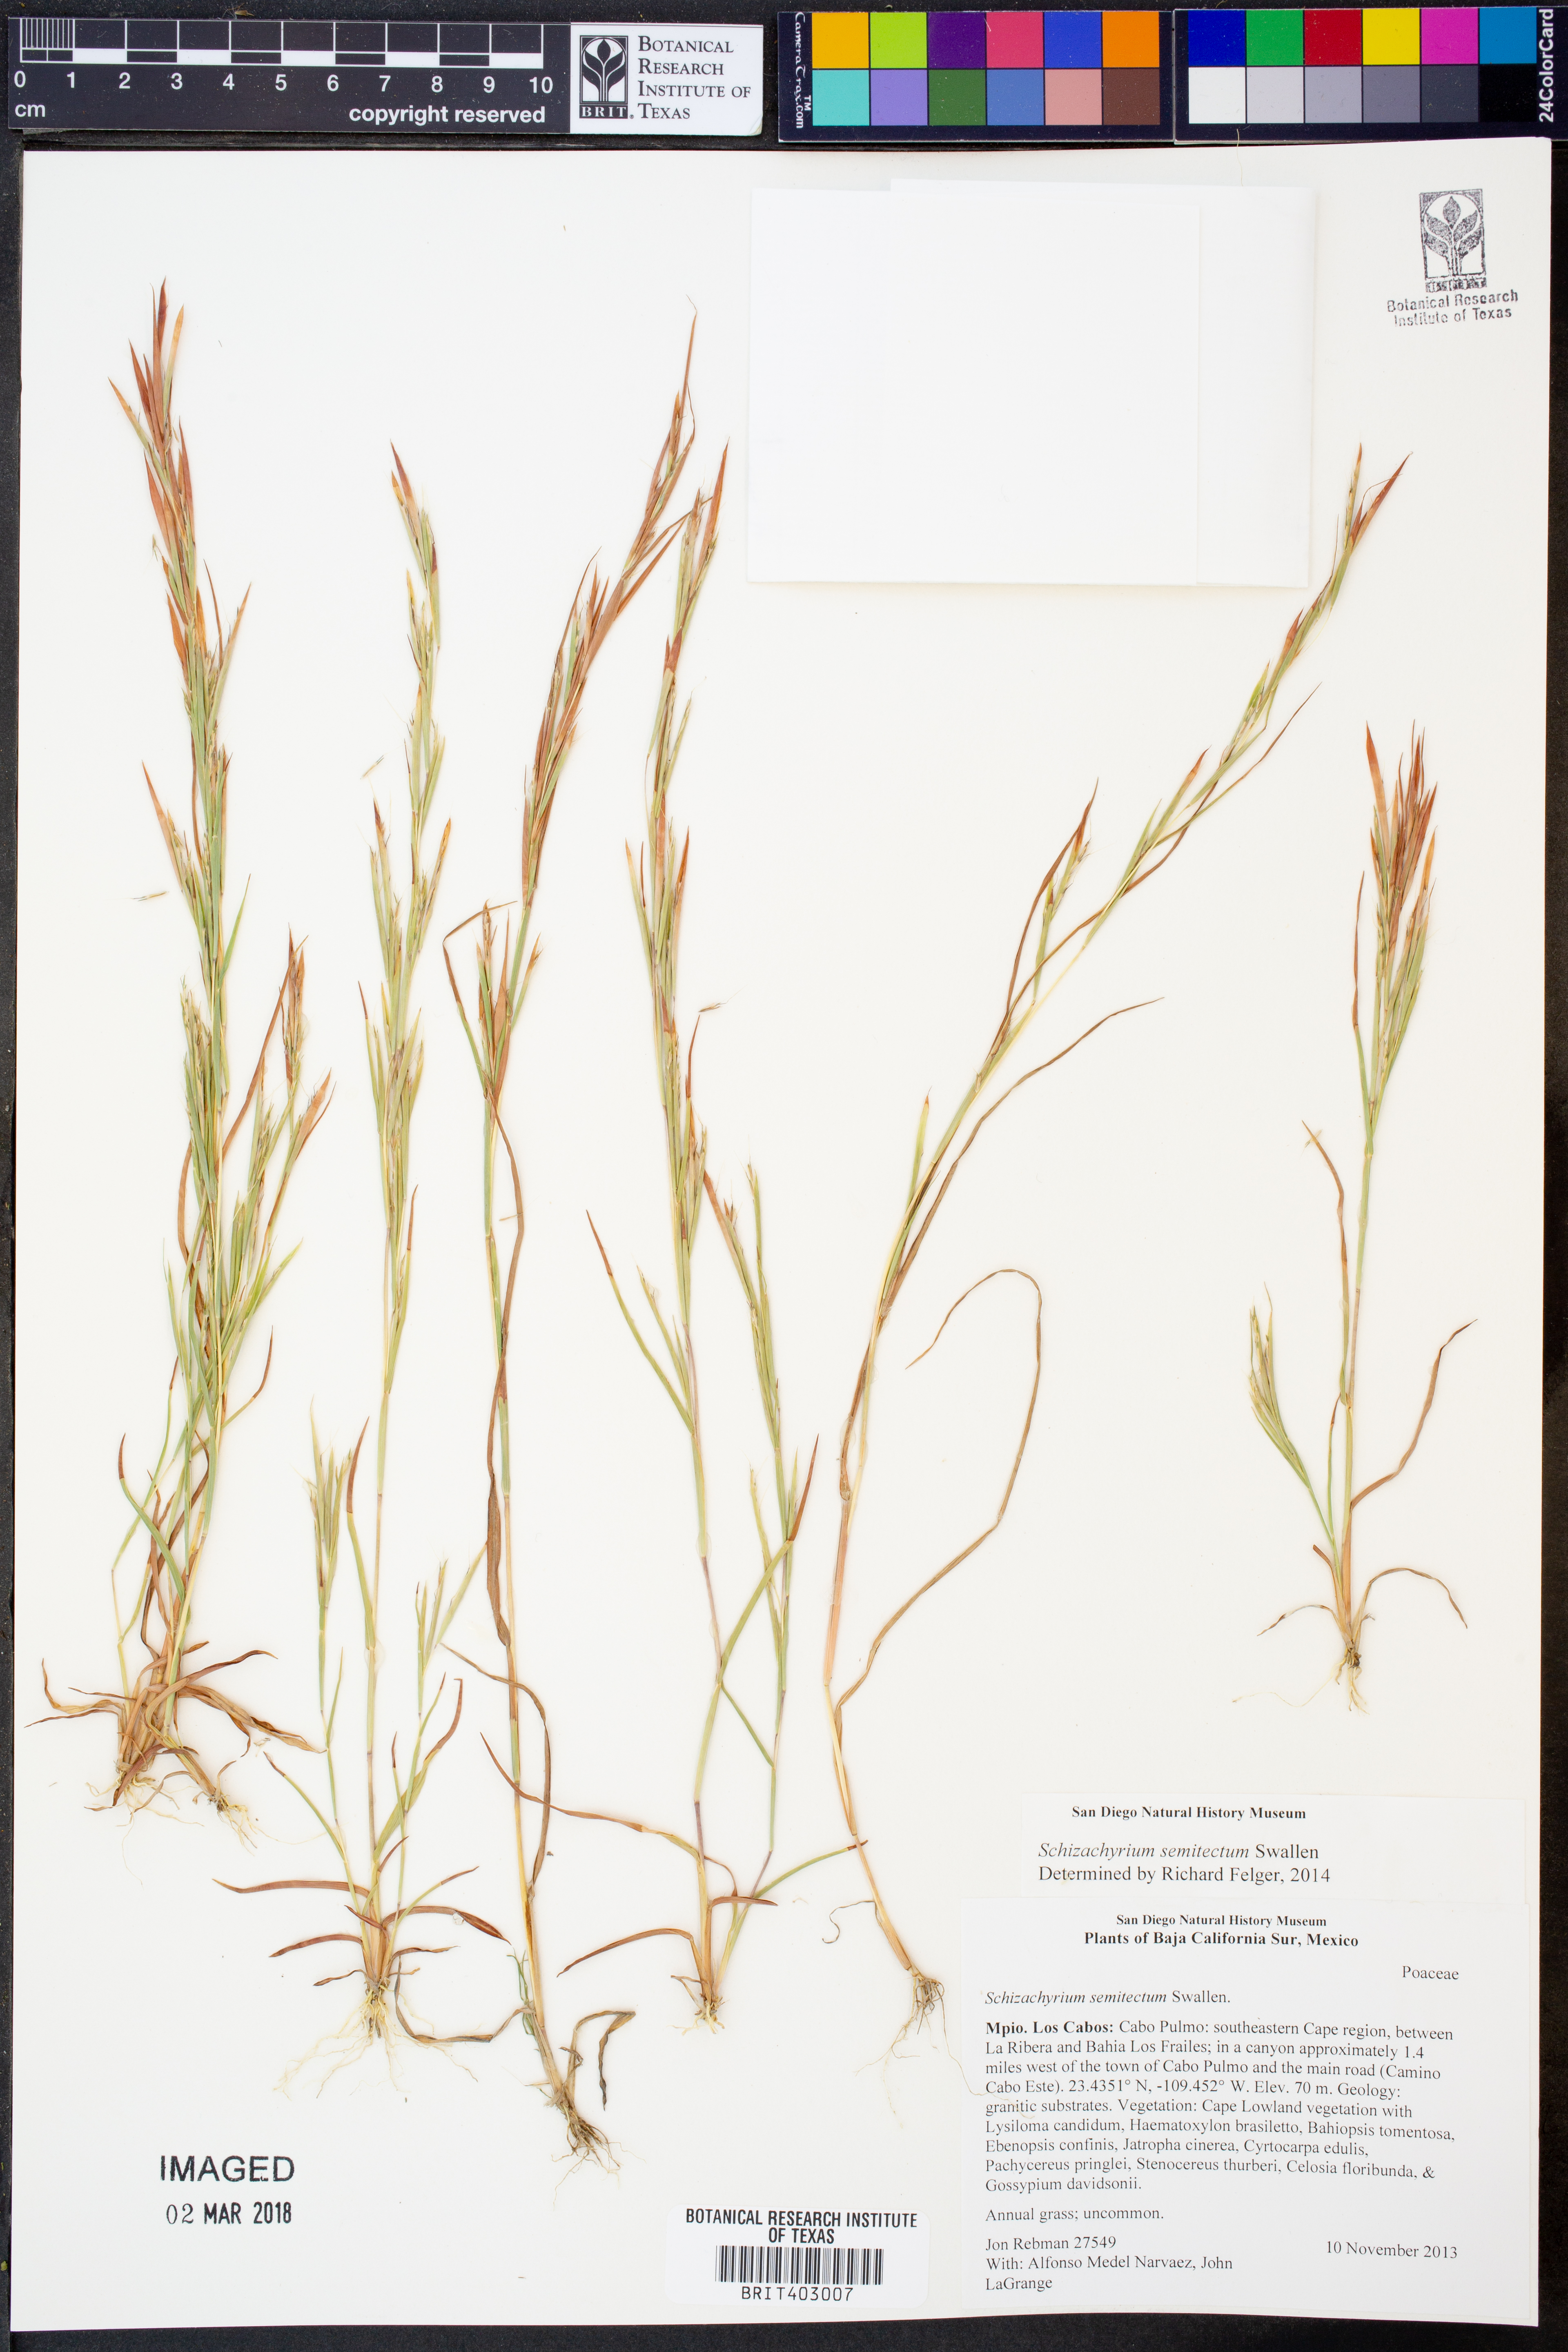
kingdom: Plantae
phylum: Tracheophyta
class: Liliopsida
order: Poales
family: Poaceae
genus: Andropogon
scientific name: Andropogon semitectus
